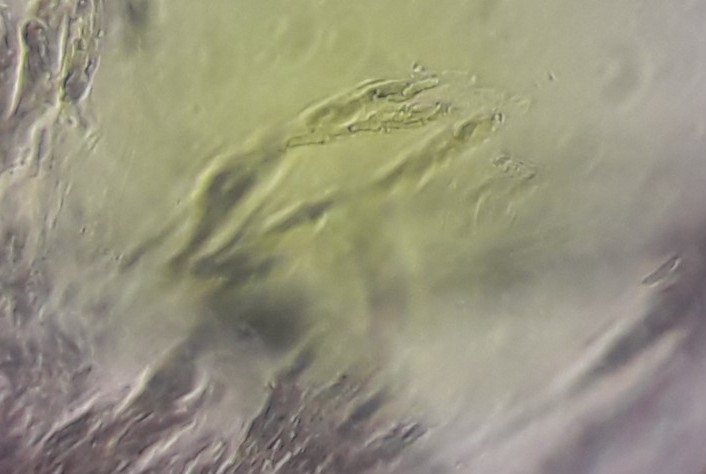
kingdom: Fungi
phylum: Ascomycota
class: Sordariomycetes
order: Xylariales
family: Diatrypaceae
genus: Eutypa
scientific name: Eutypa lata
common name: almindelig kulskorpe
